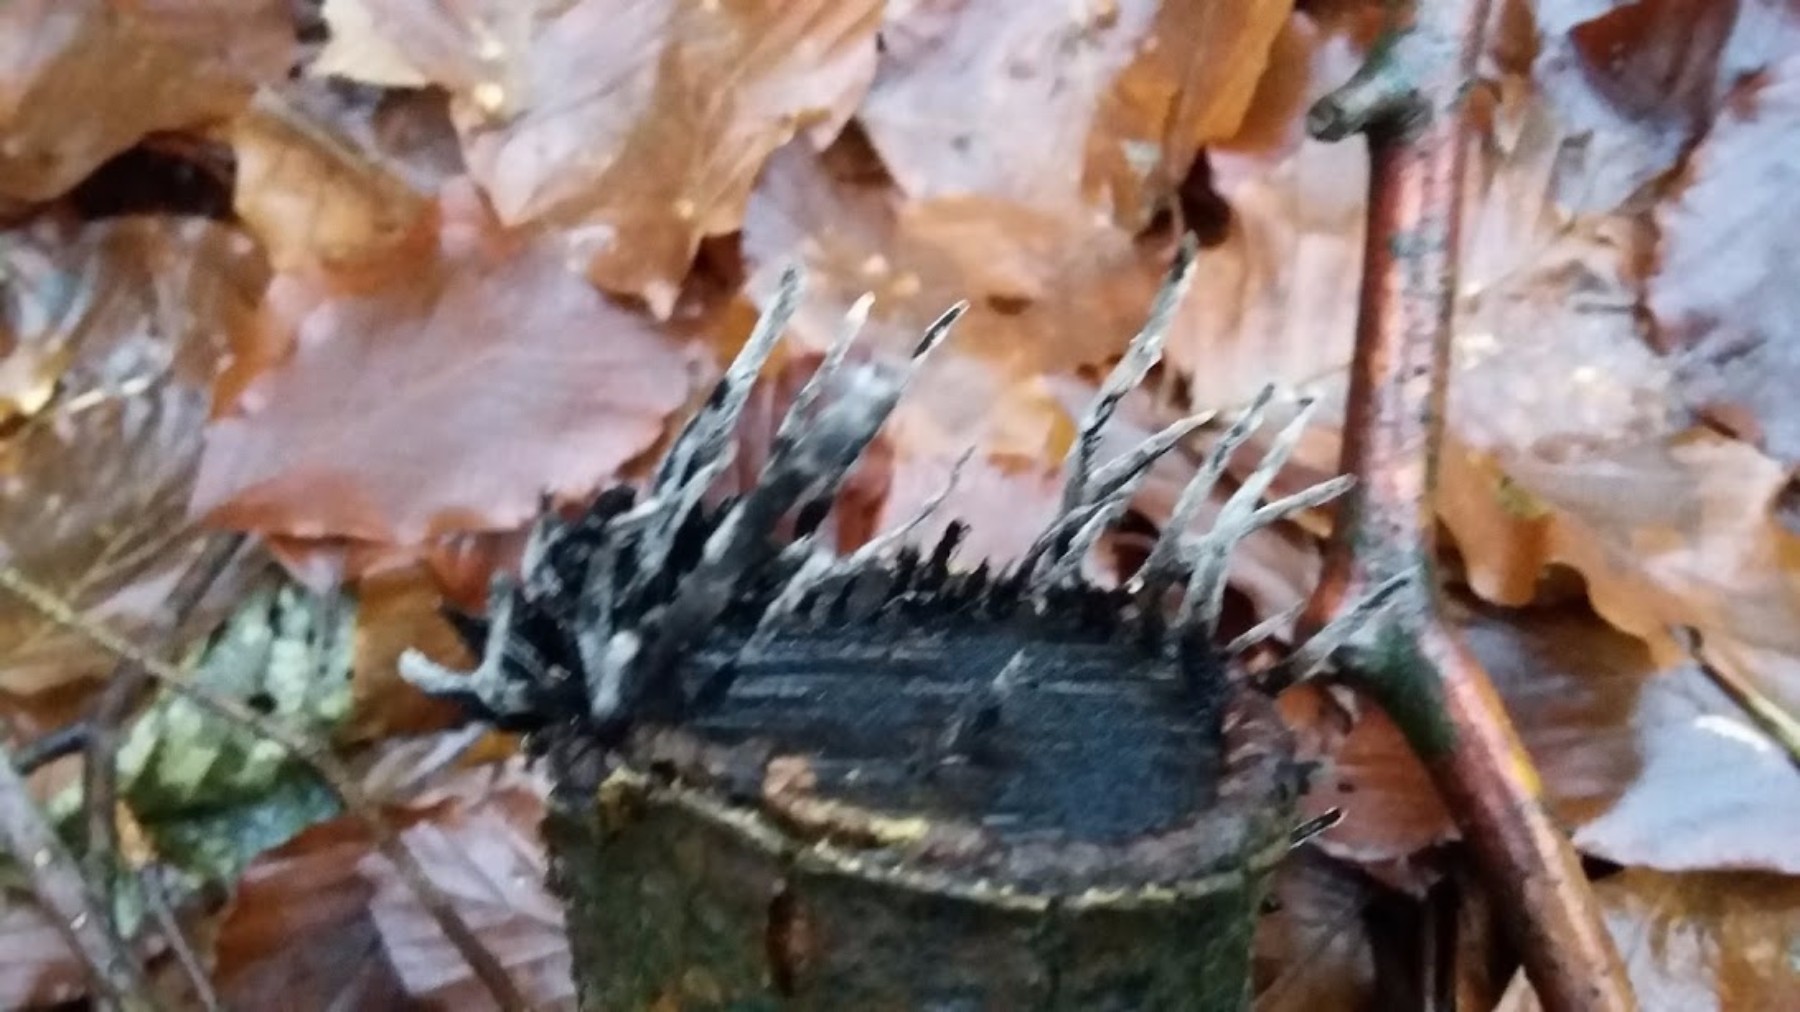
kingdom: Fungi
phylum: Ascomycota
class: Sordariomycetes
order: Xylariales
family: Xylariaceae
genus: Xylaria
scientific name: Xylaria hypoxylon
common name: grenet stødsvamp
